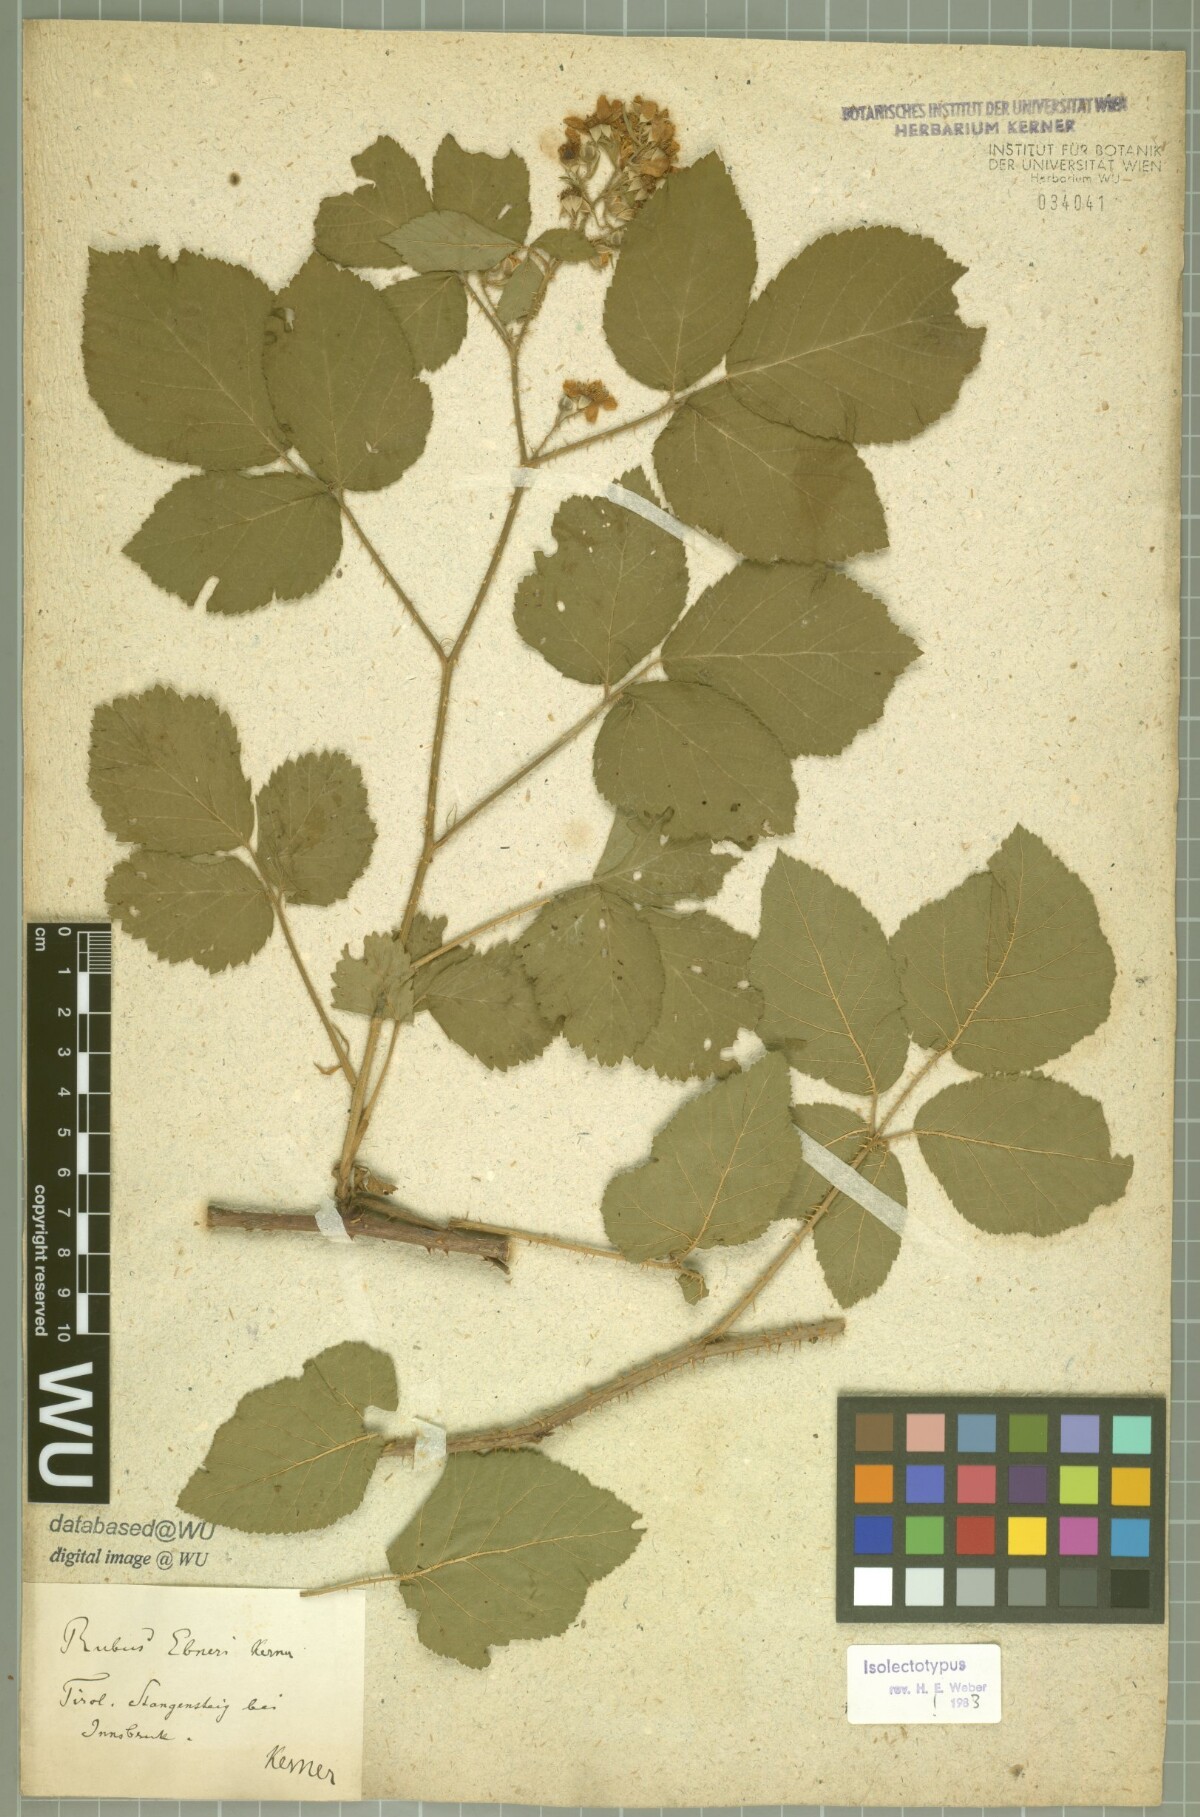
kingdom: Plantae
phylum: Tracheophyta
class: Magnoliopsida
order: Rosales
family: Rosaceae
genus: Rubus
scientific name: Rubus ebneri
